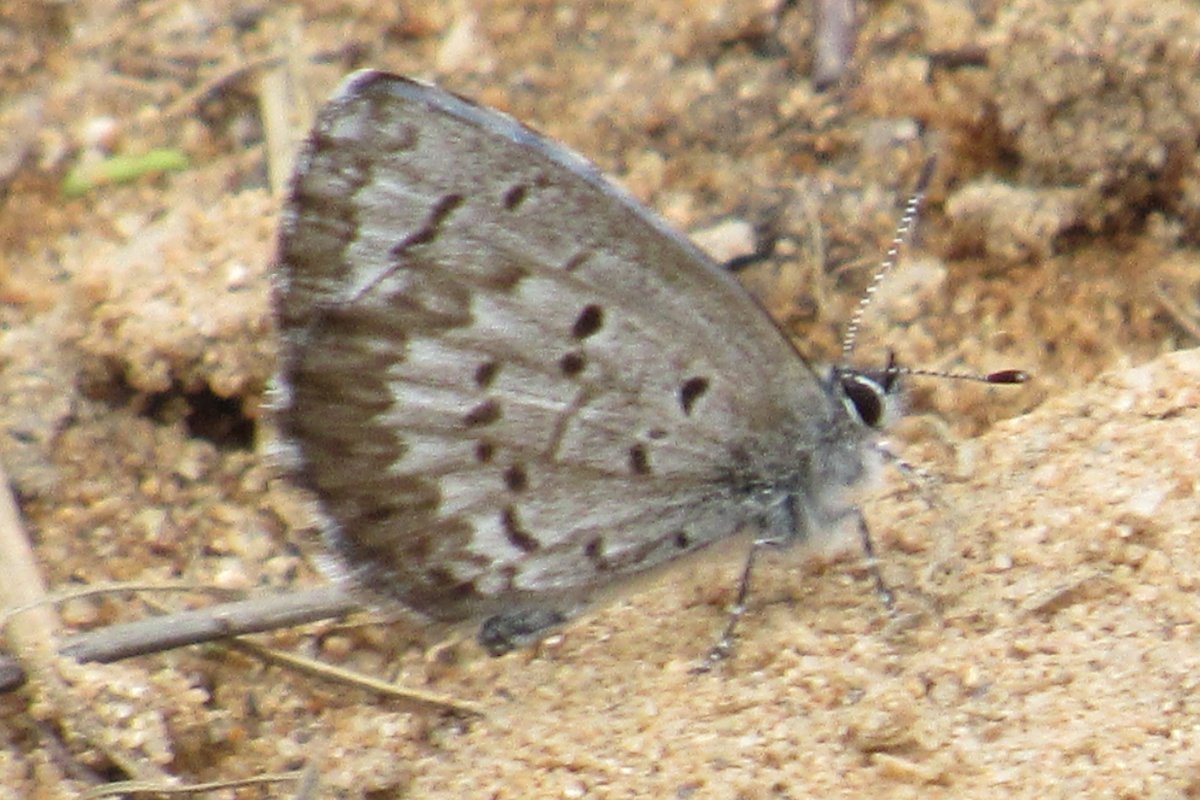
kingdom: Animalia
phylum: Arthropoda
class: Insecta
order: Lepidoptera
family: Lycaenidae
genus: Celastrina
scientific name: Celastrina lucia
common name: Northern Spring Azure
